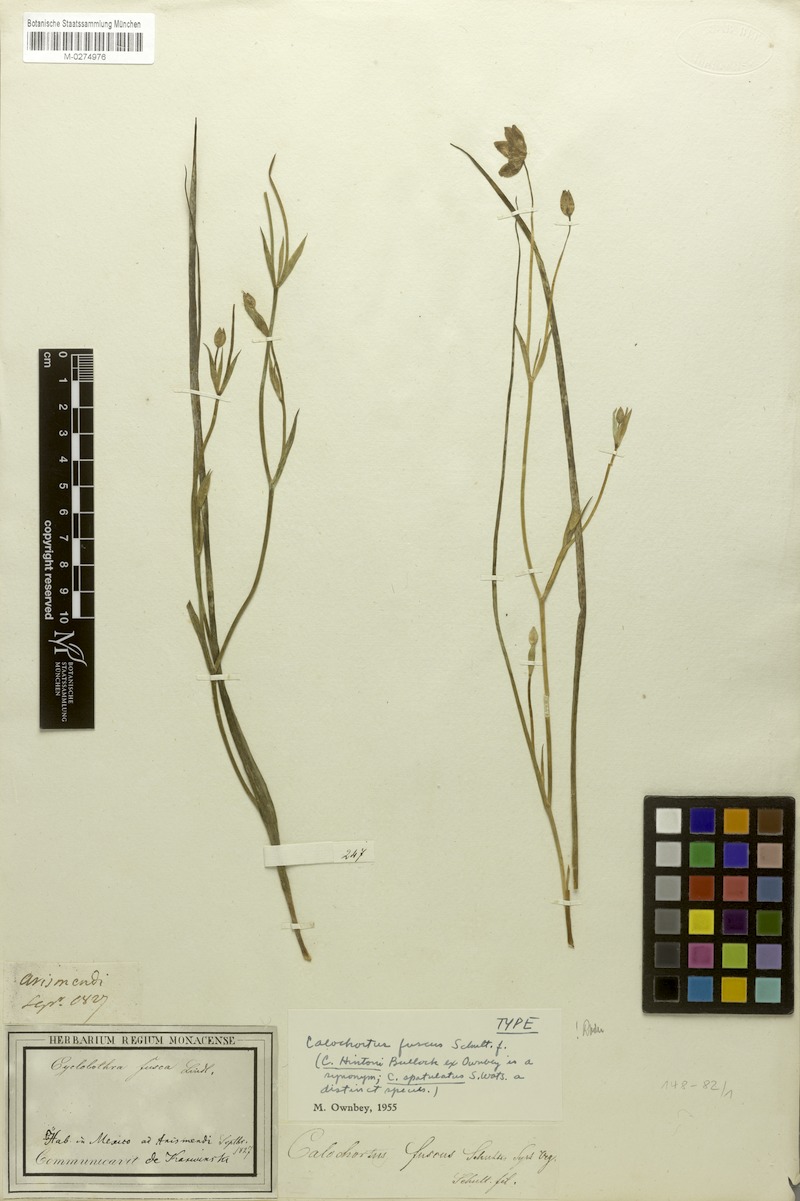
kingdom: Plantae
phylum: Tracheophyta
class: Liliopsida
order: Liliales
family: Liliaceae
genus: Calochortus
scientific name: Calochortus fuscus
